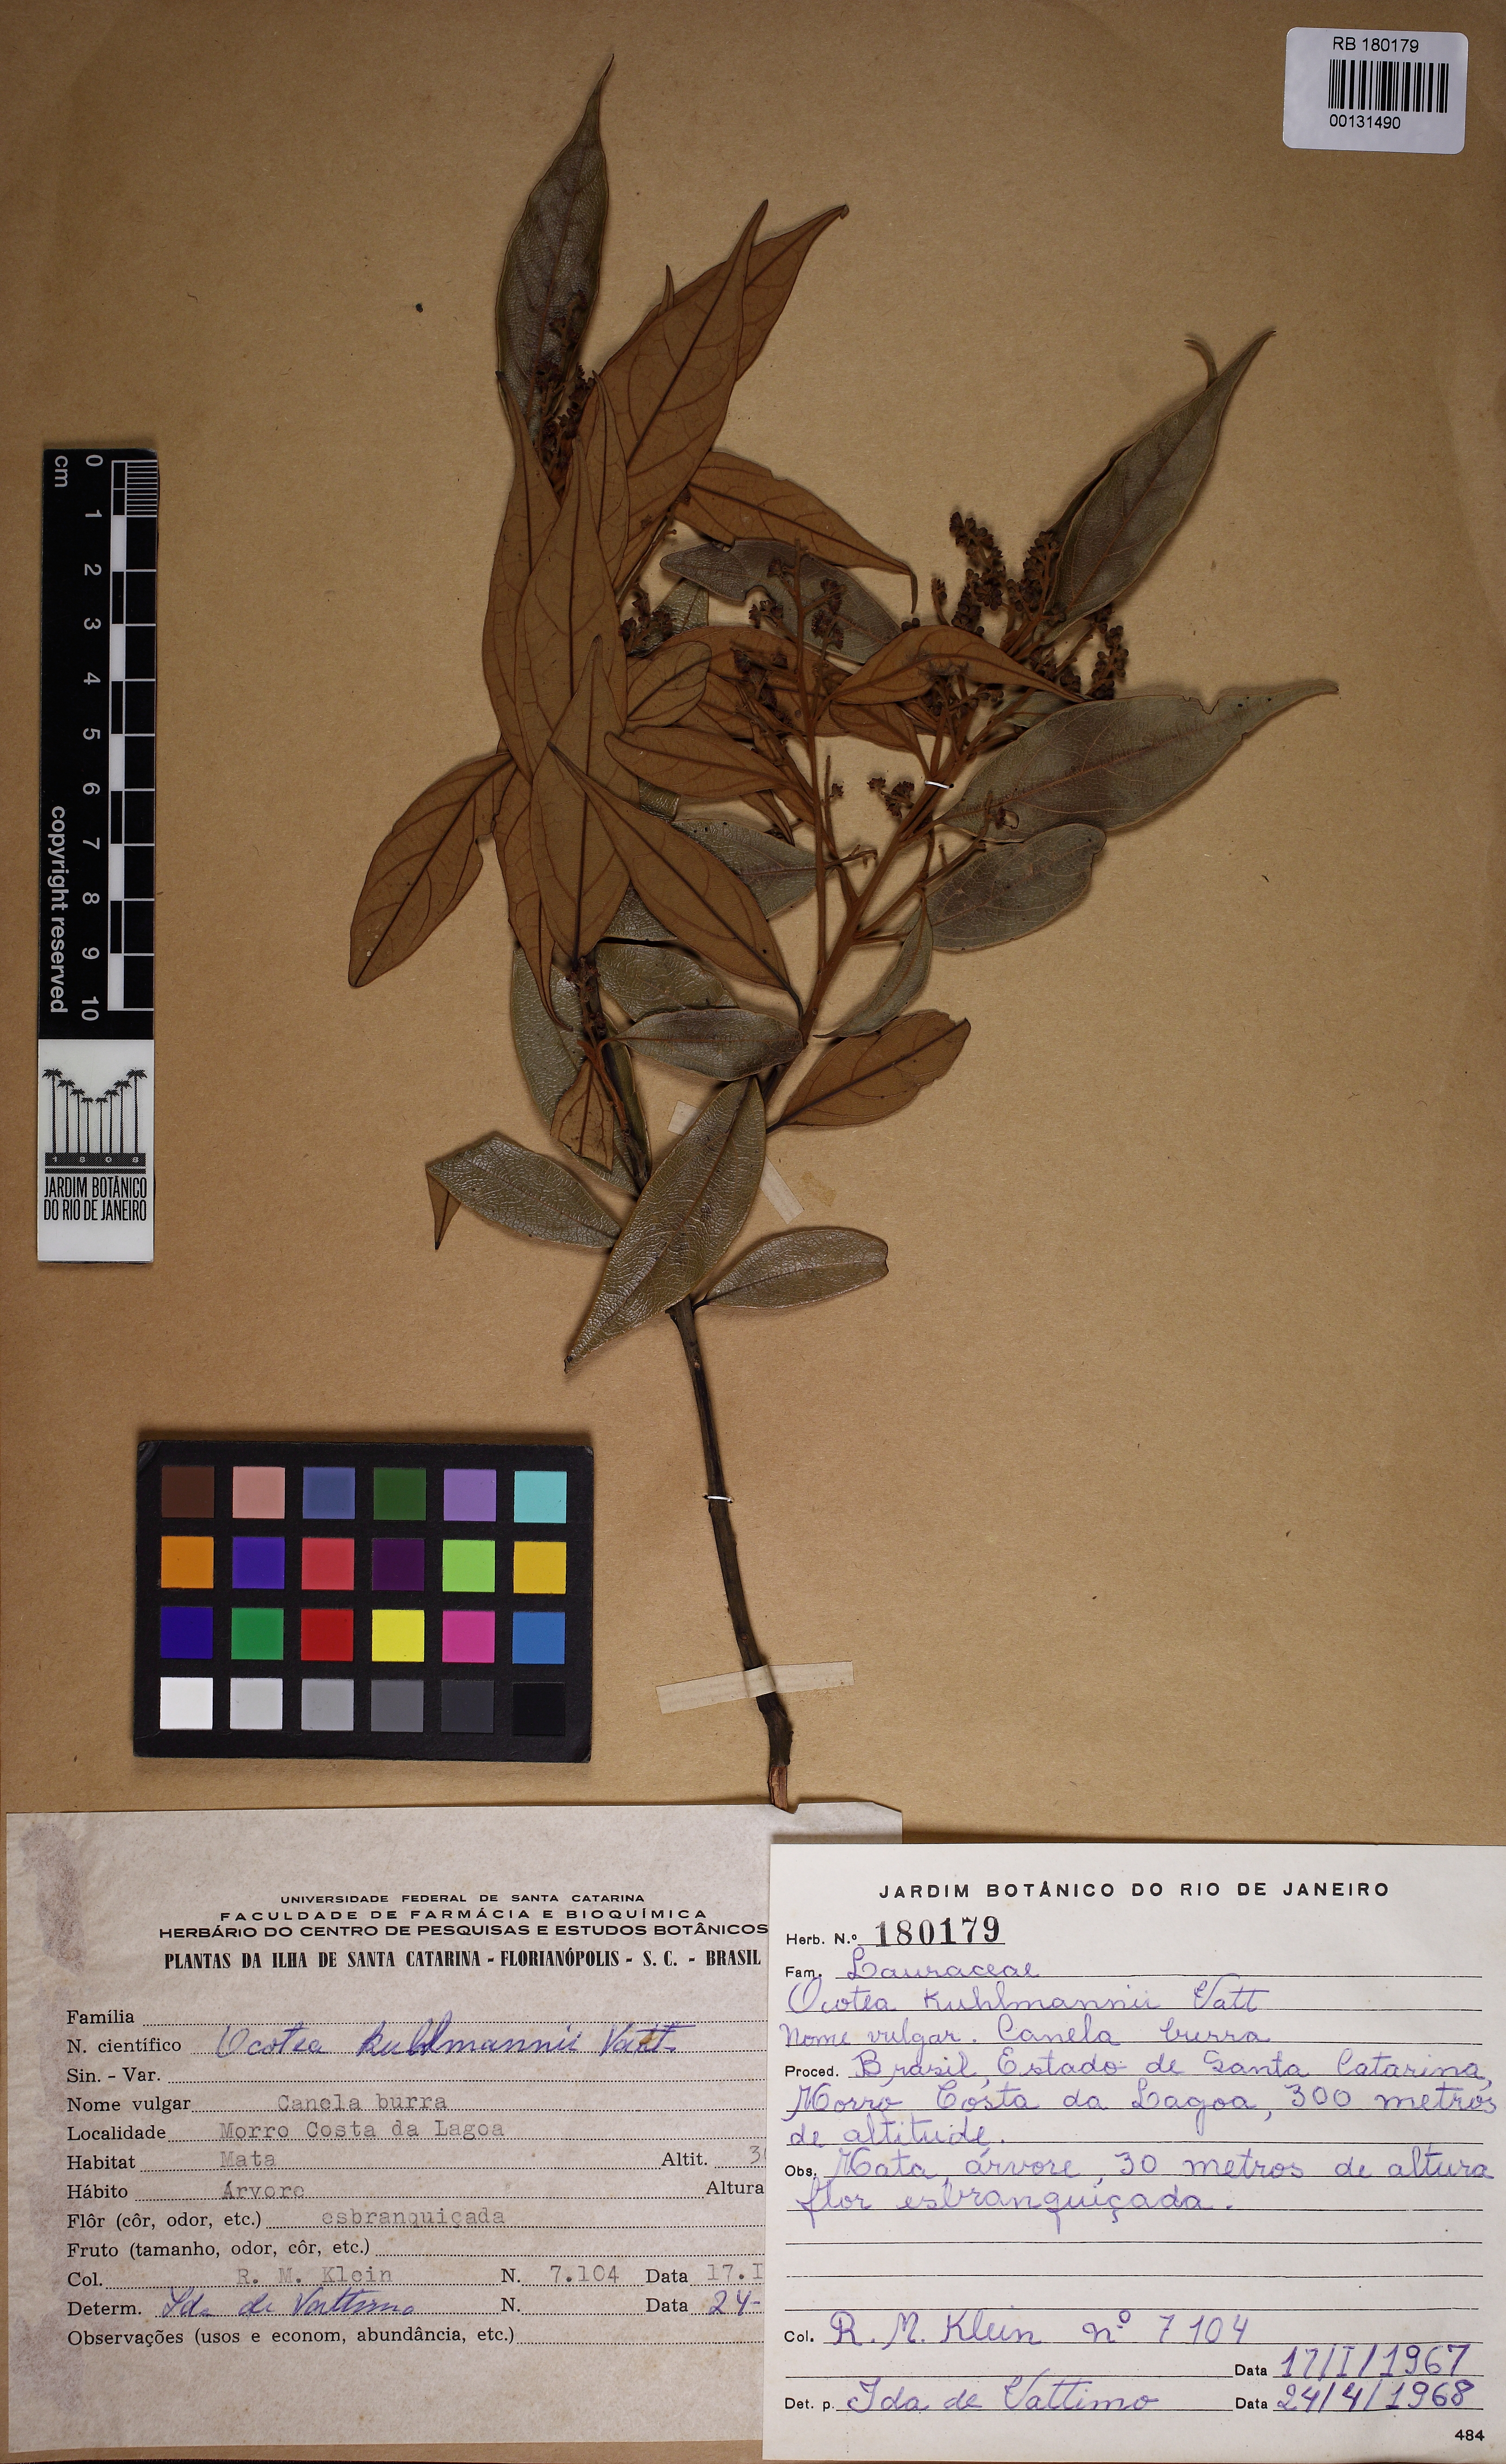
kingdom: Plantae
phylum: Tracheophyta
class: Magnoliopsida
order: Laurales
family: Lauraceae
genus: Ocotea
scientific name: Ocotea urbaniana
